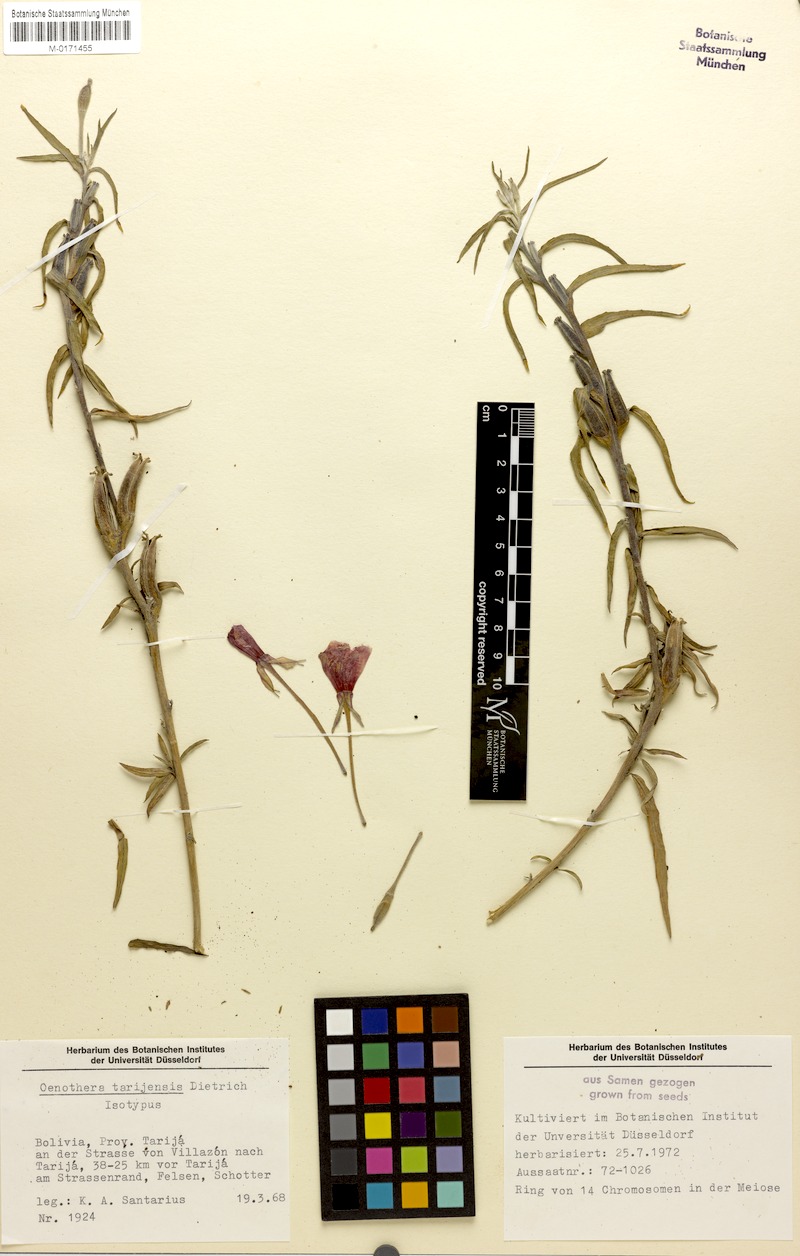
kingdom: Plantae
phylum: Tracheophyta
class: Magnoliopsida
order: Myrtales
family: Onagraceae
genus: Oenothera
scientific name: Oenothera tarijensis
